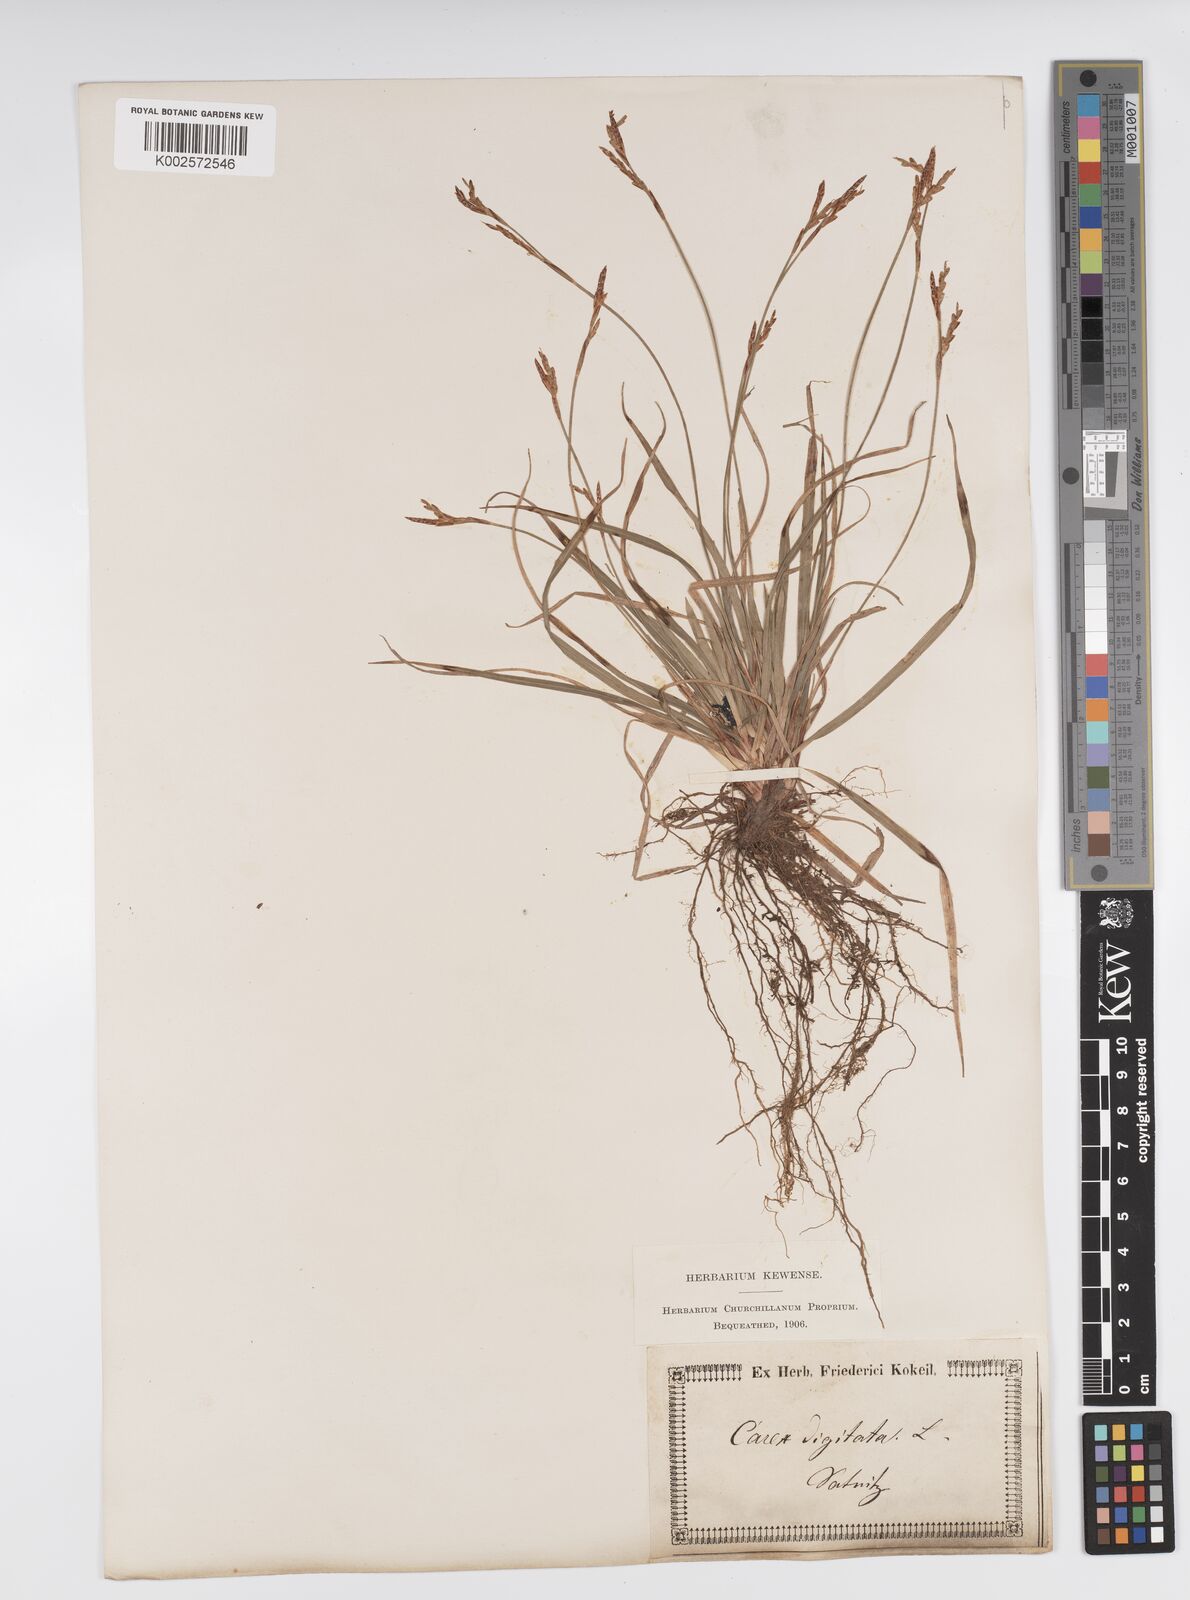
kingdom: Plantae
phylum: Tracheophyta
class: Liliopsida
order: Poales
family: Cyperaceae
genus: Carex
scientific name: Carex digitata
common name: Fingered sedge
